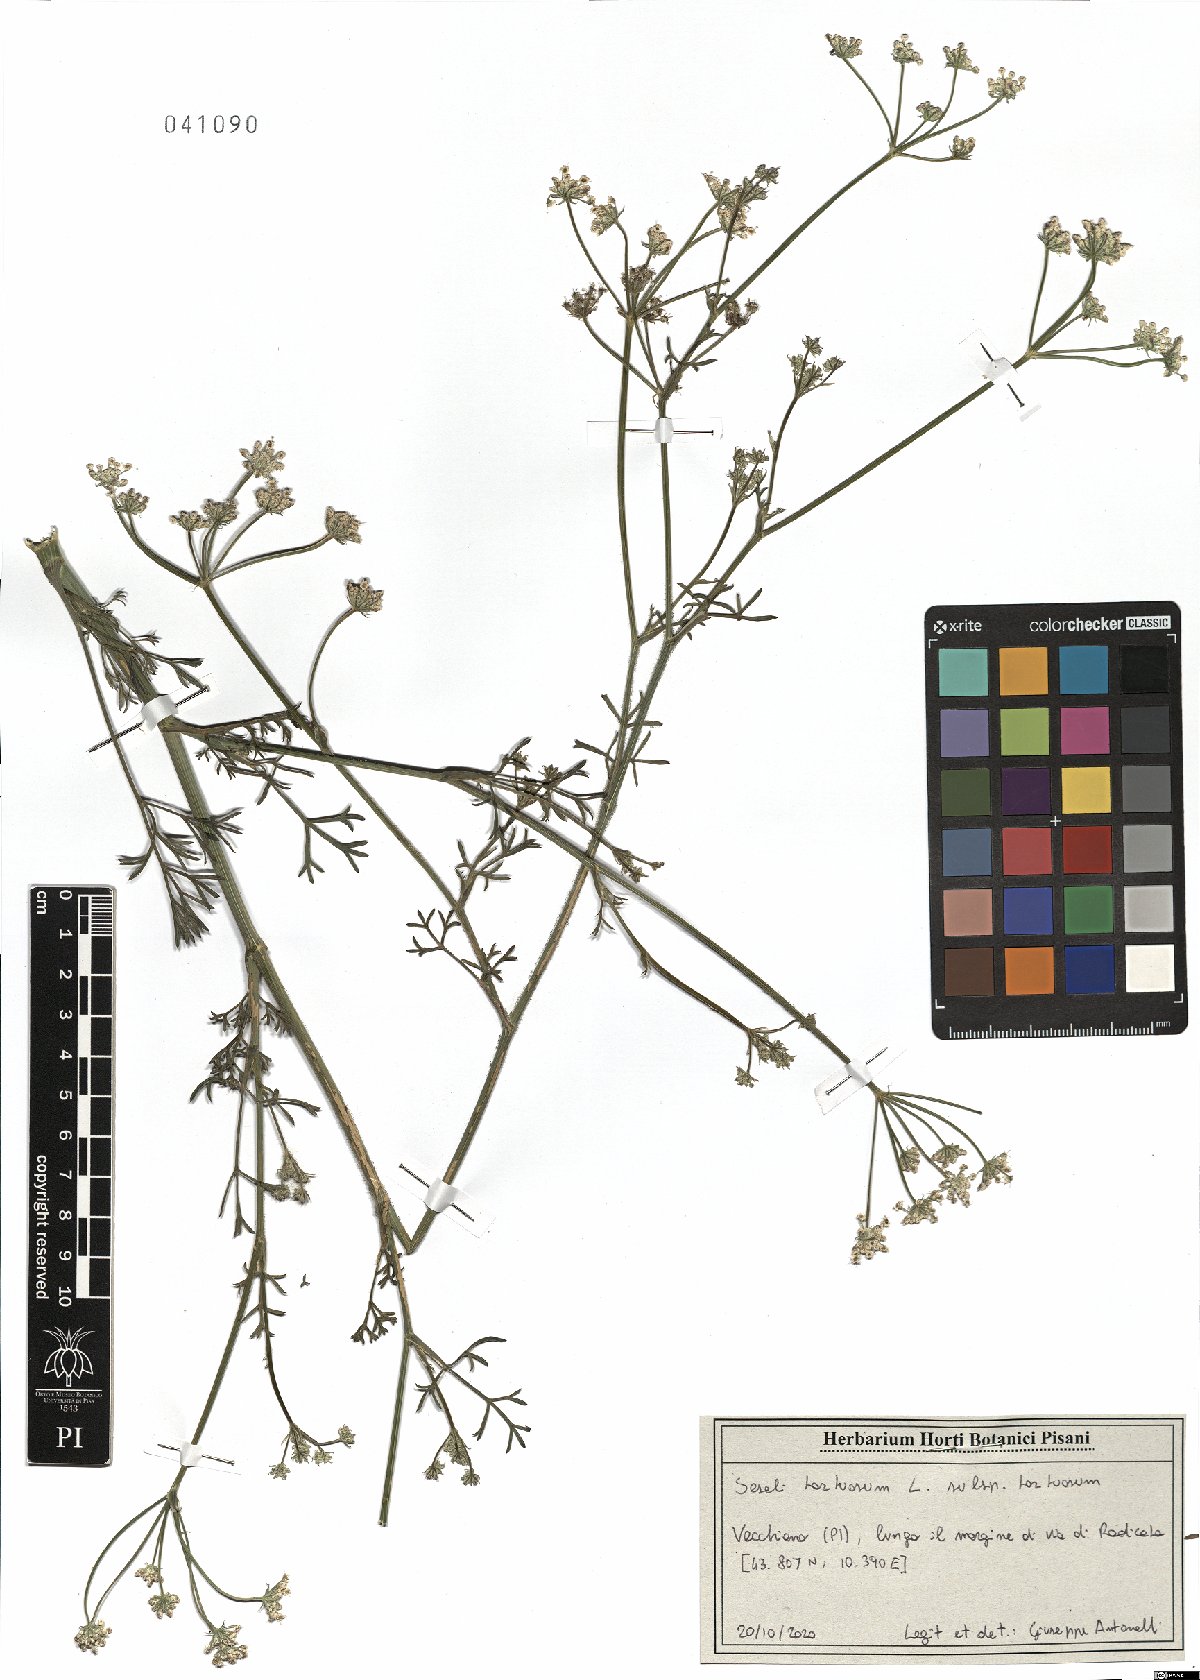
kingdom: Plantae
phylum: Tracheophyta
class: Magnoliopsida
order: Apiales
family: Apiaceae
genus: Seseli
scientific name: Seseli tortuosum
